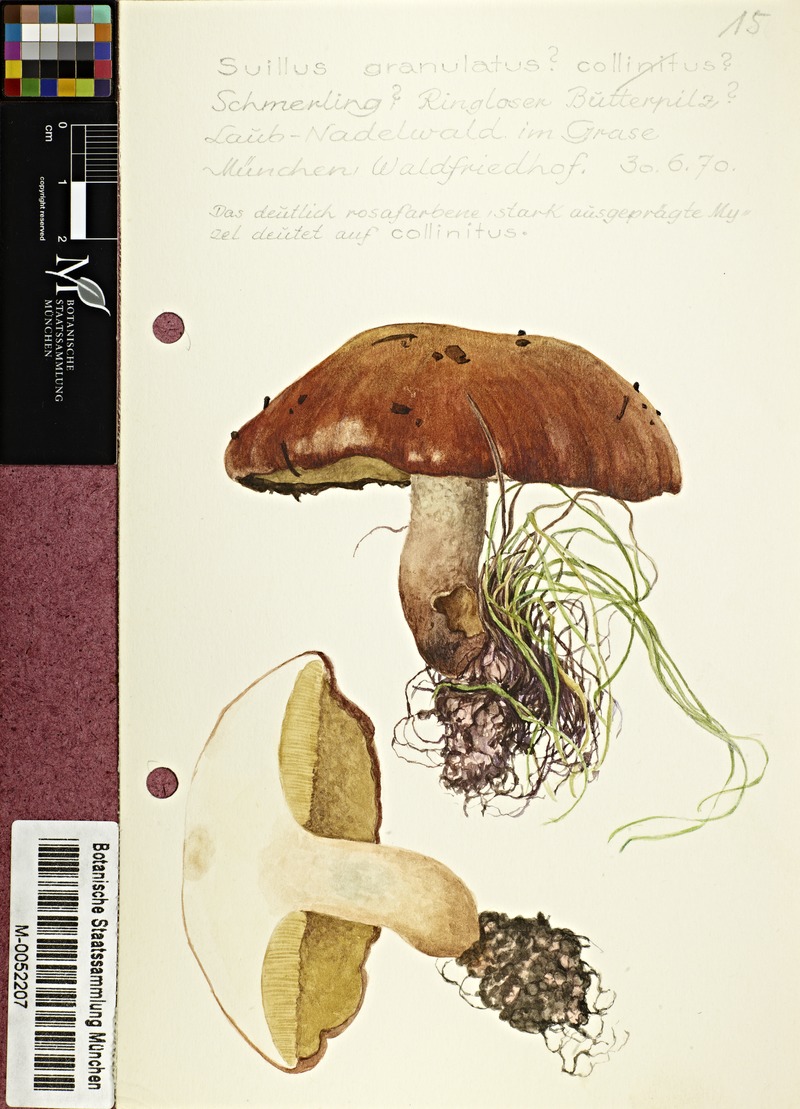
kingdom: Fungi
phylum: Basidiomycota
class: Agaricomycetes
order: Boletales
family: Suillaceae
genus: Suillus
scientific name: Suillus granulatus
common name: Weeping bolete
